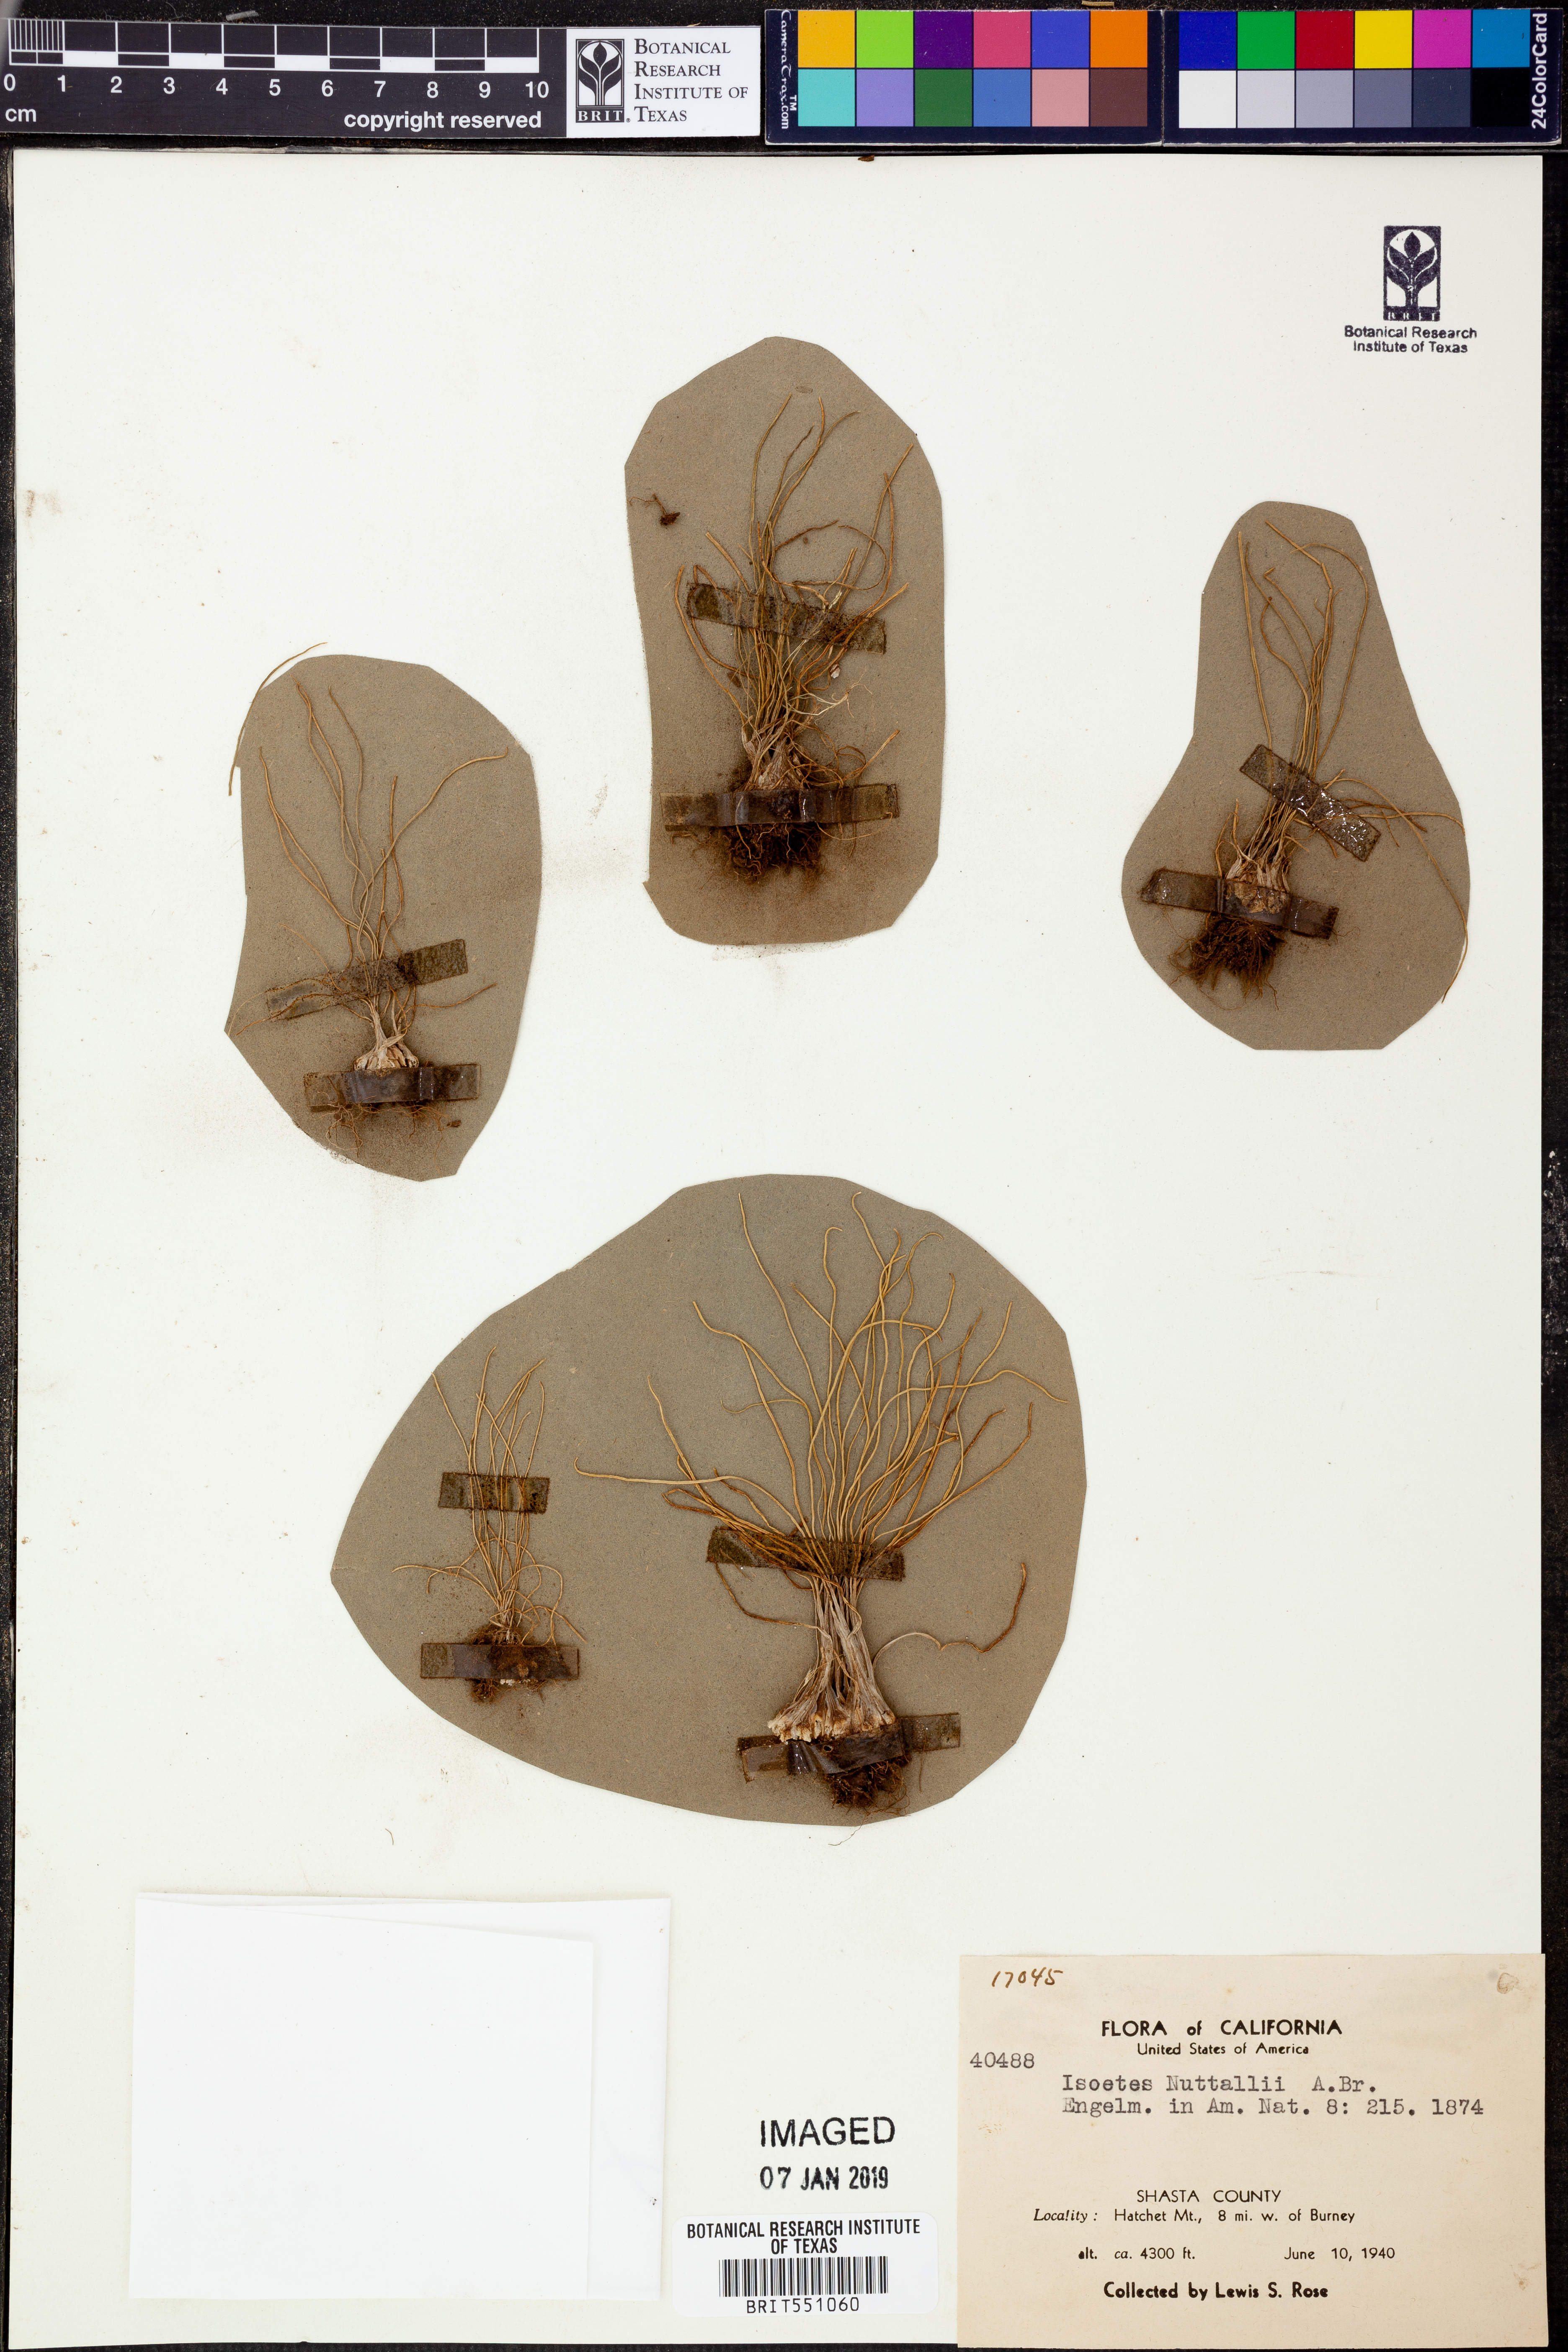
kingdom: Plantae
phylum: Tracheophyta
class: Lycopodiopsida
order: Isoetales
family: Isoetaceae
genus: Isoetes
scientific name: Isoetes nuttallii
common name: Nuttall's quillwort
